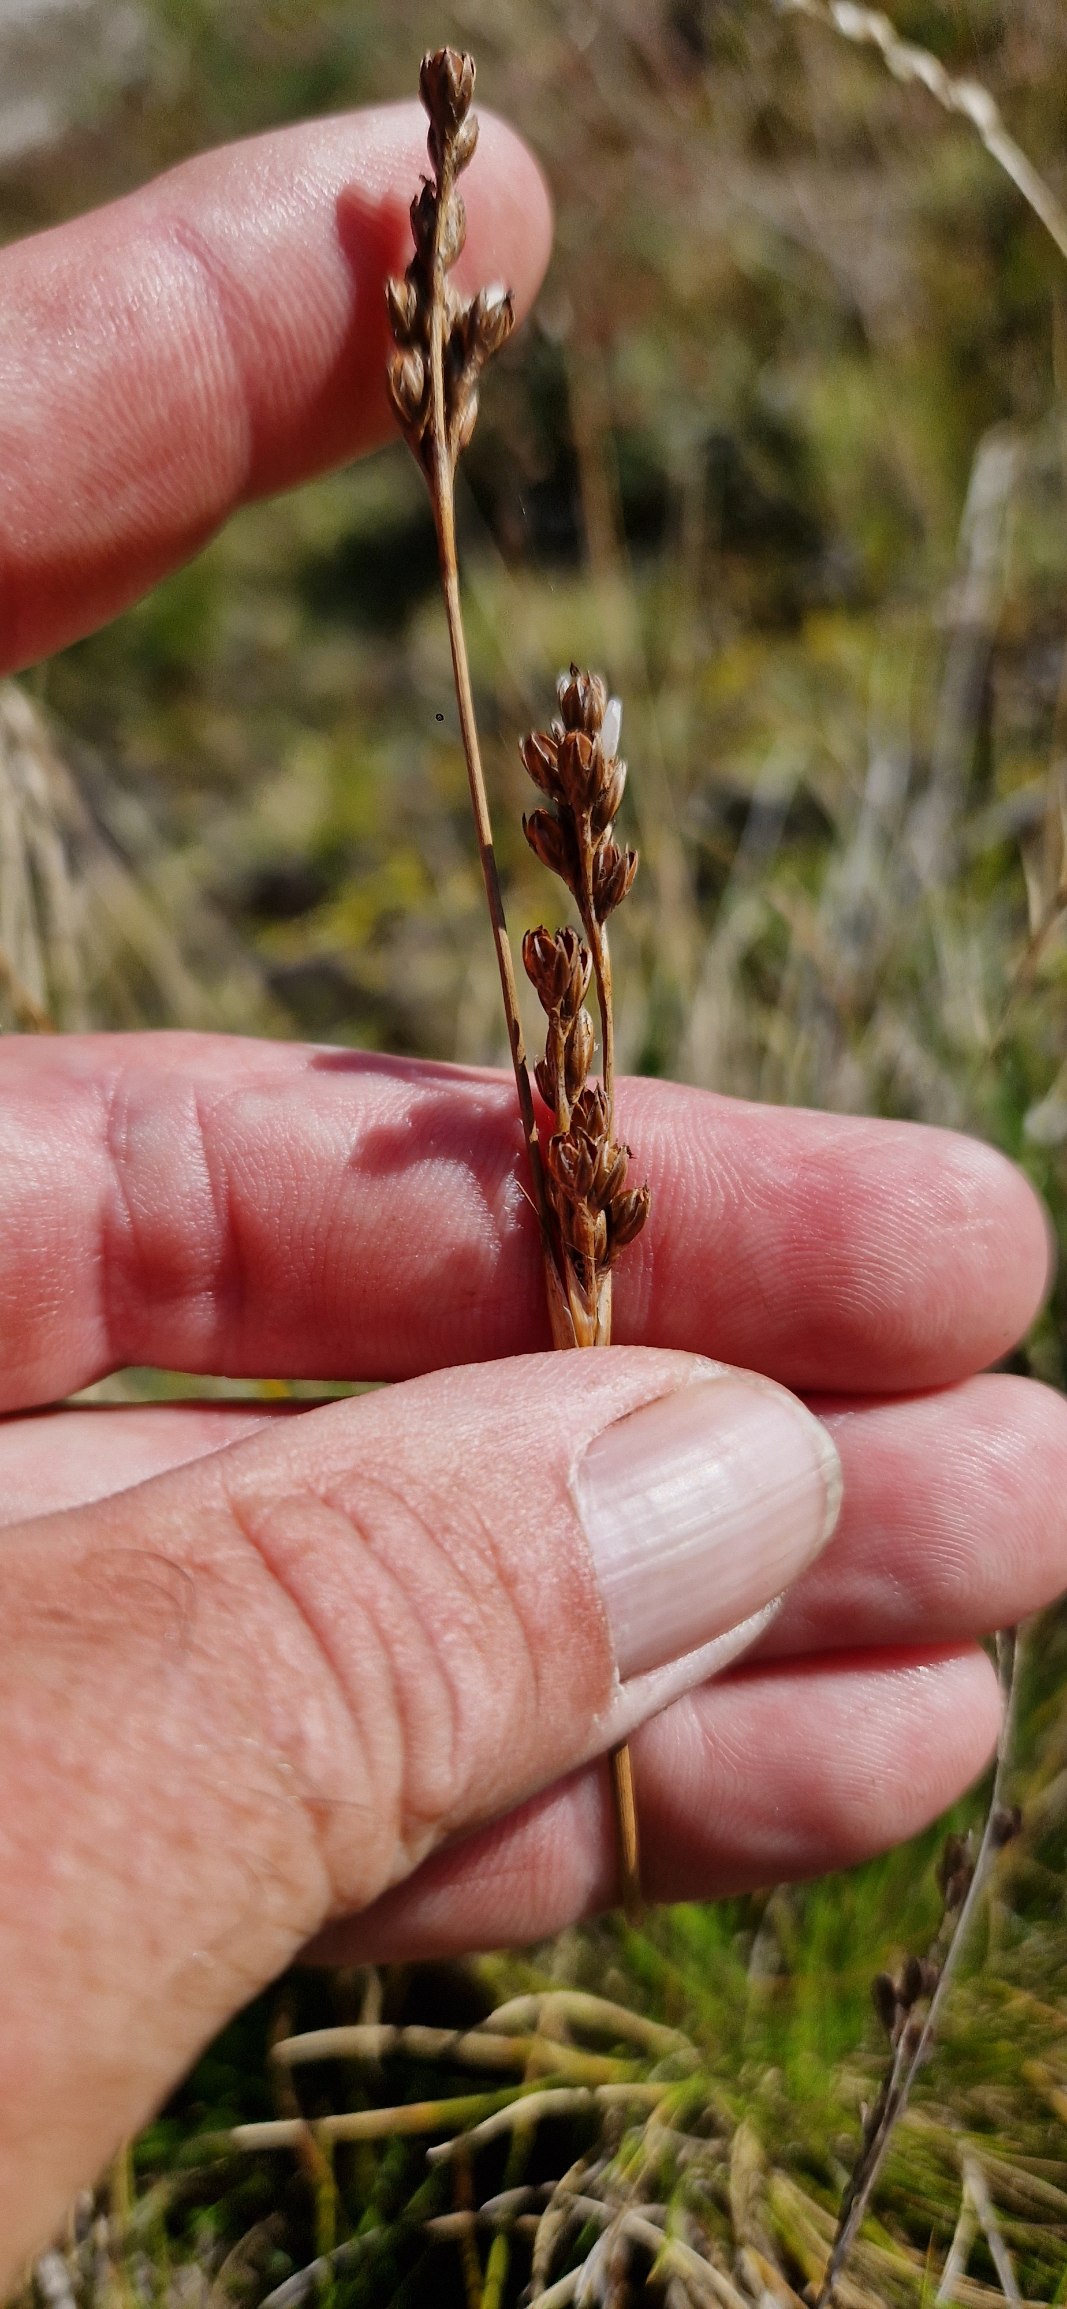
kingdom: Plantae
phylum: Tracheophyta
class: Liliopsida
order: Poales
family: Juncaceae
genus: Juncus
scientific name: Juncus squarrosus
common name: Børste-siv
